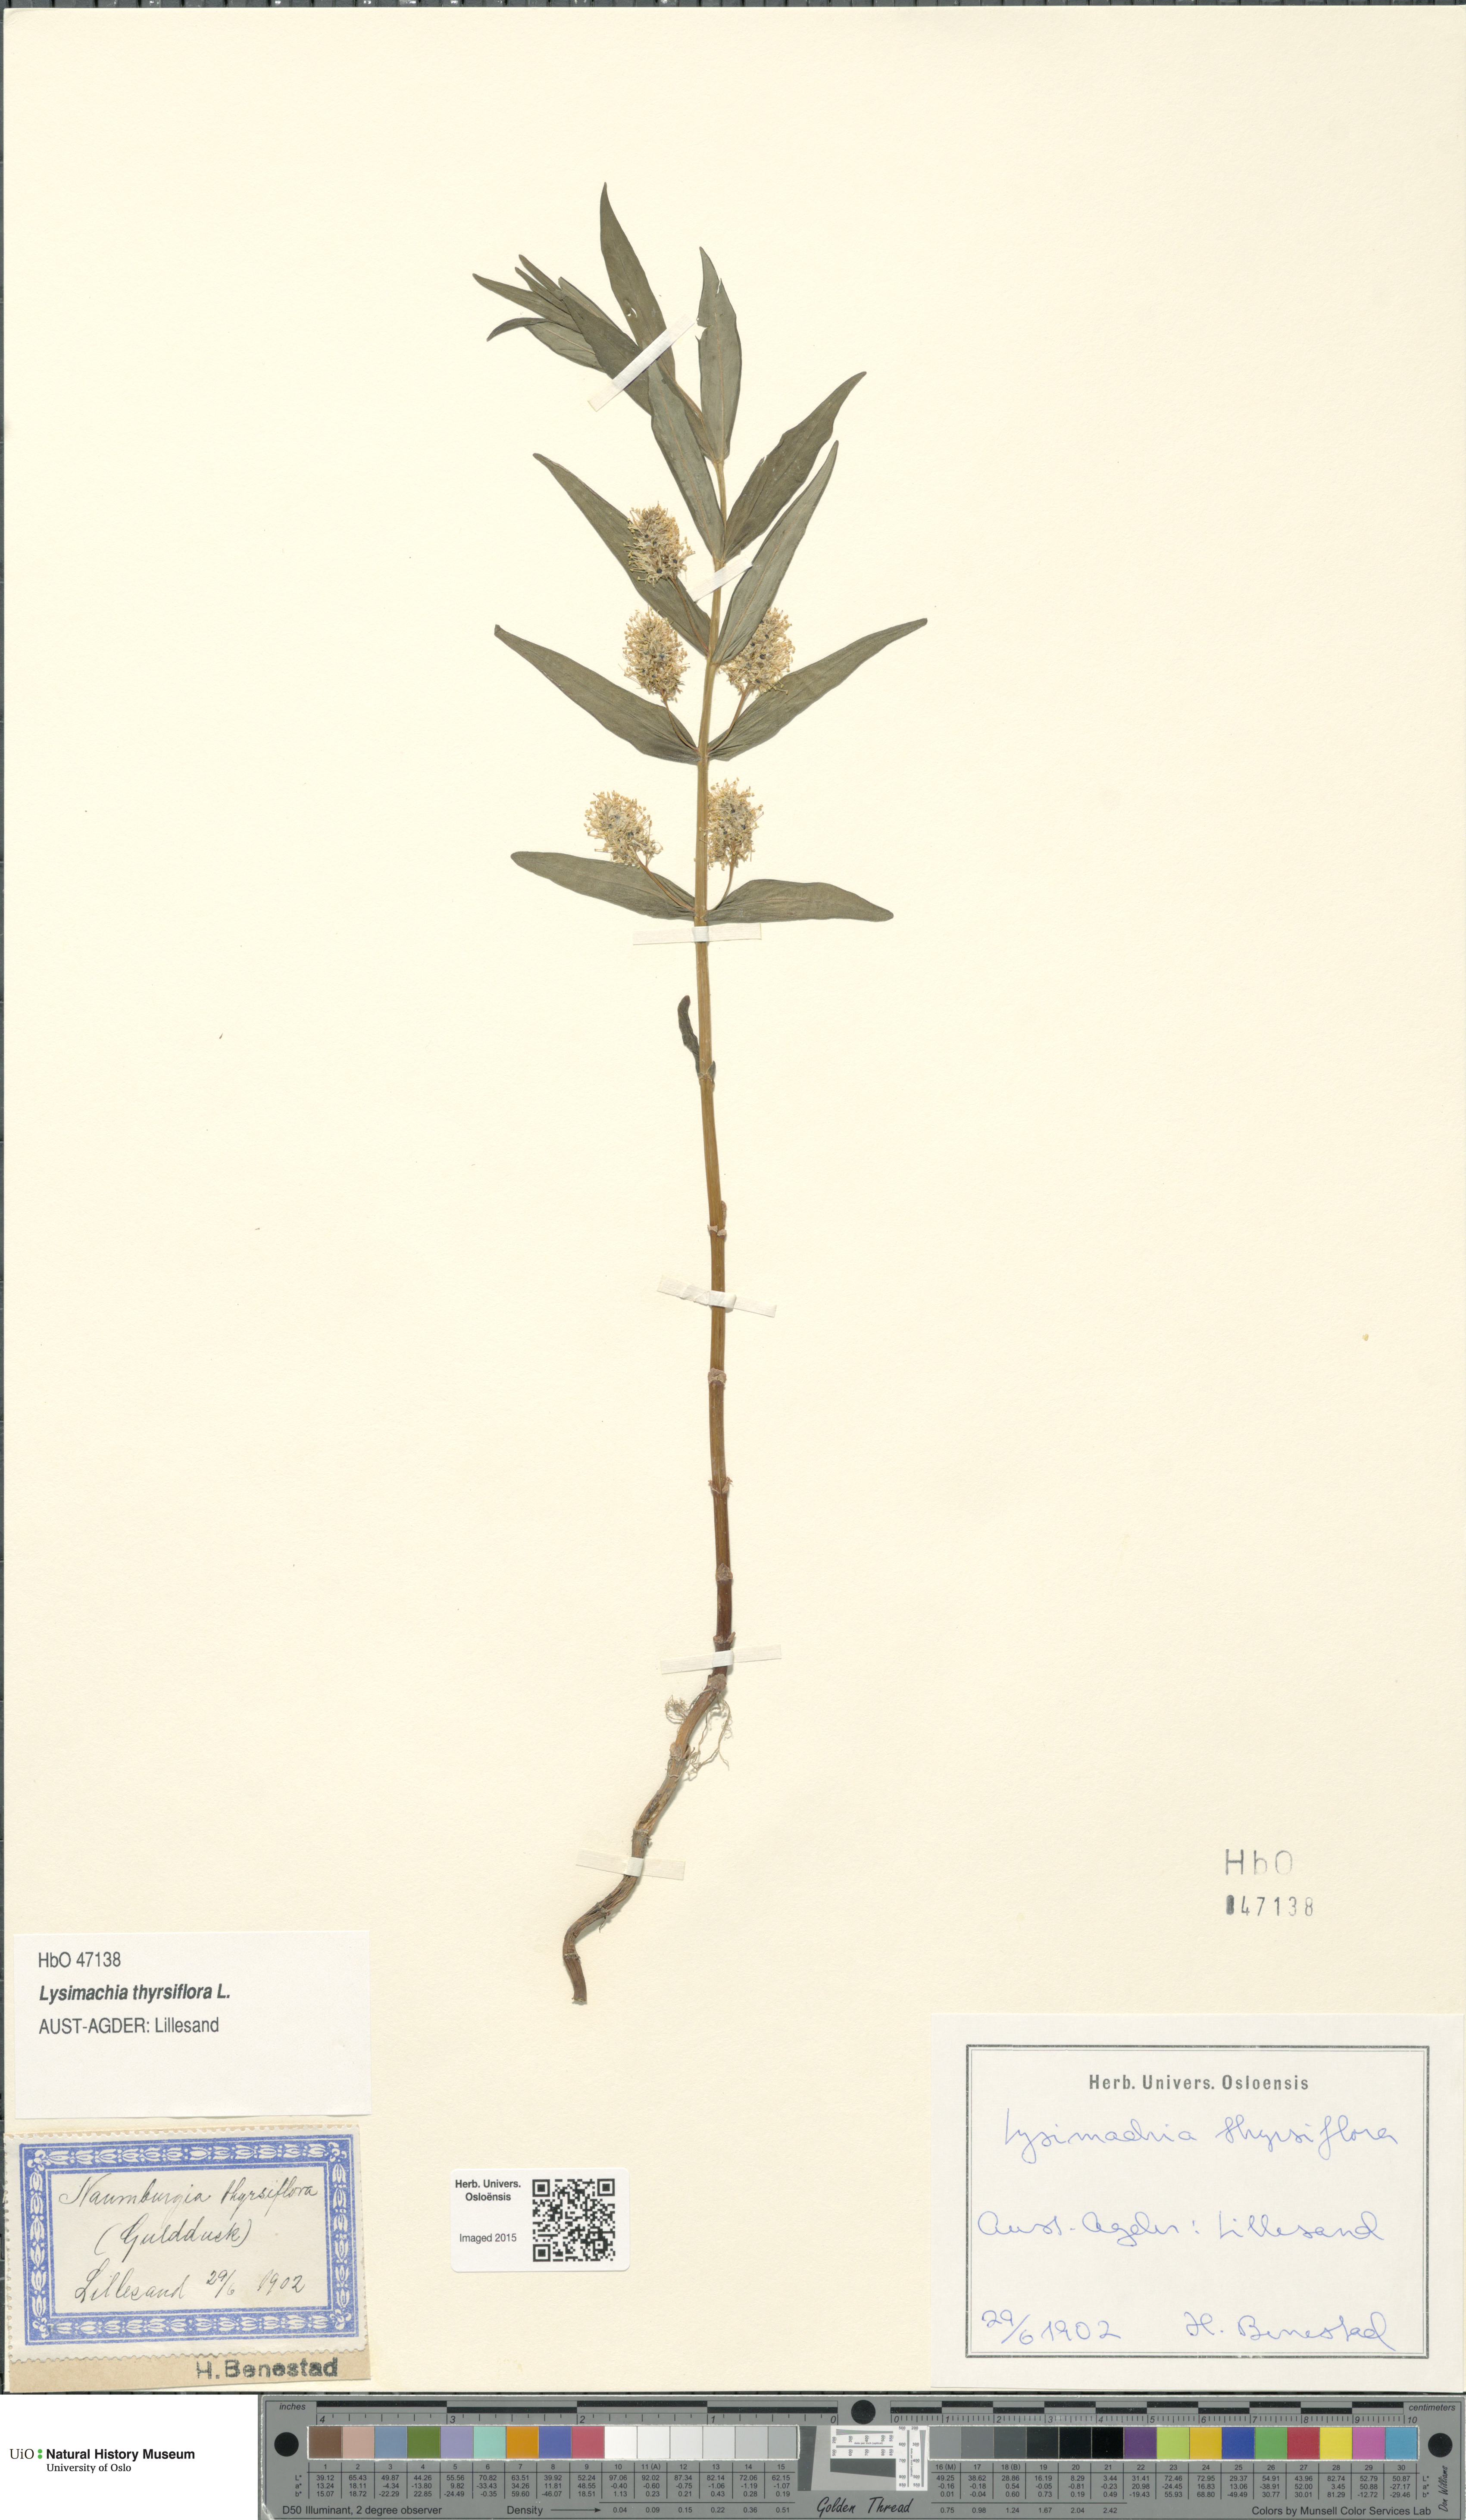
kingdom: Plantae
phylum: Tracheophyta
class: Magnoliopsida
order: Ericales
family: Primulaceae
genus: Lysimachia
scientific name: Lysimachia thyrsiflora
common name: Tufted loosestrife
